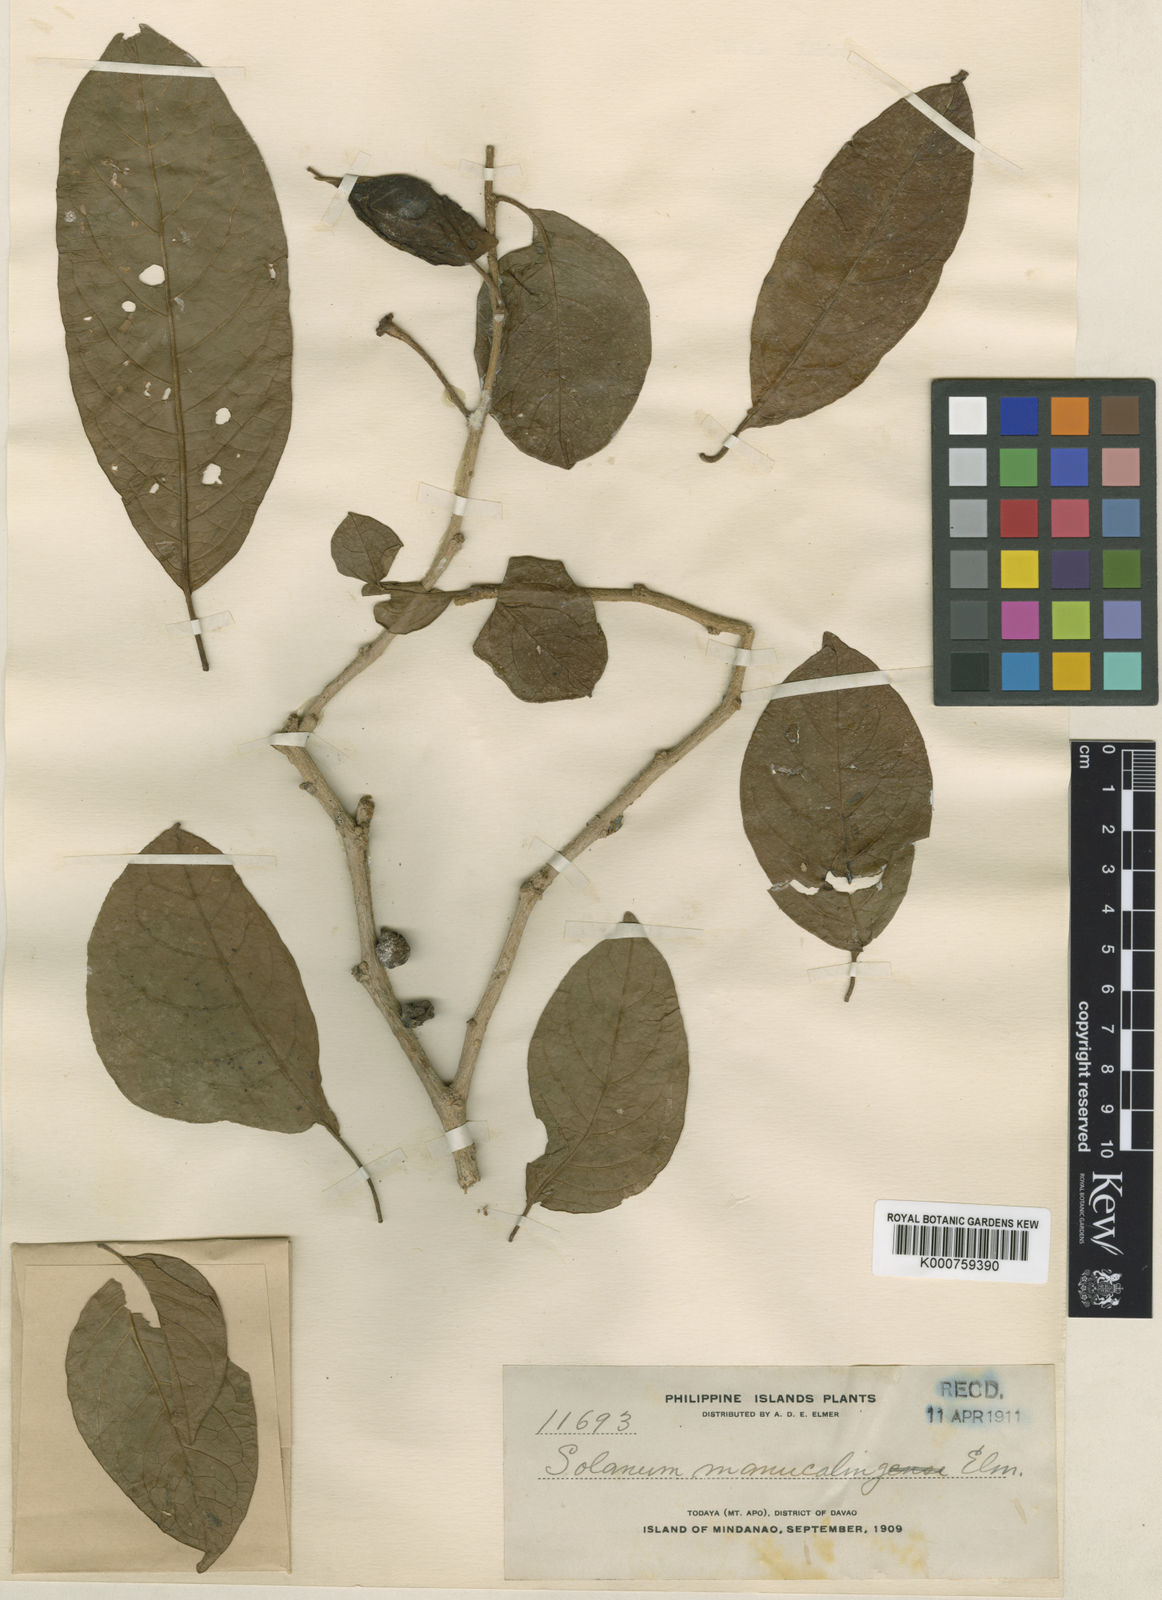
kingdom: Plantae
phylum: Tracheophyta
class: Magnoliopsida
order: Solanales
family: Solanaceae
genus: Lycianthes
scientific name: Lycianthes banahaensis
